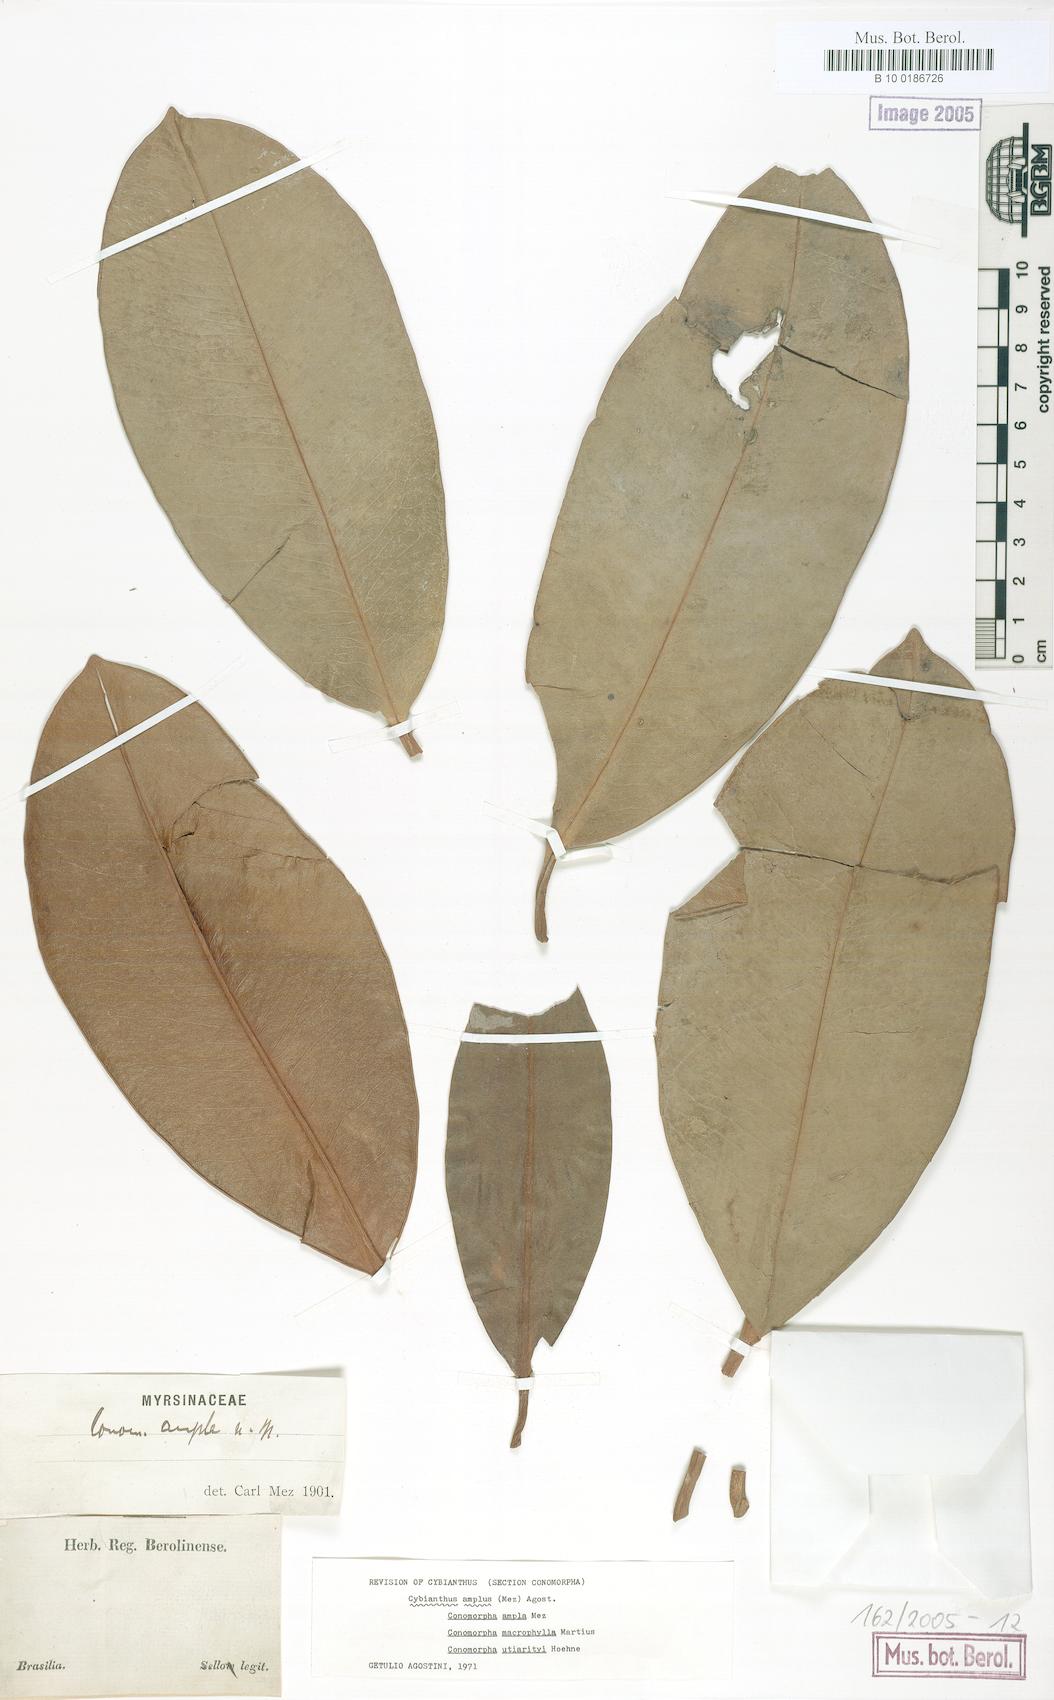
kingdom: Plantae
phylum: Tracheophyta
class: Magnoliopsida
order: Ericales
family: Primulaceae
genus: Cybianthus
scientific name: Cybianthus amplus
